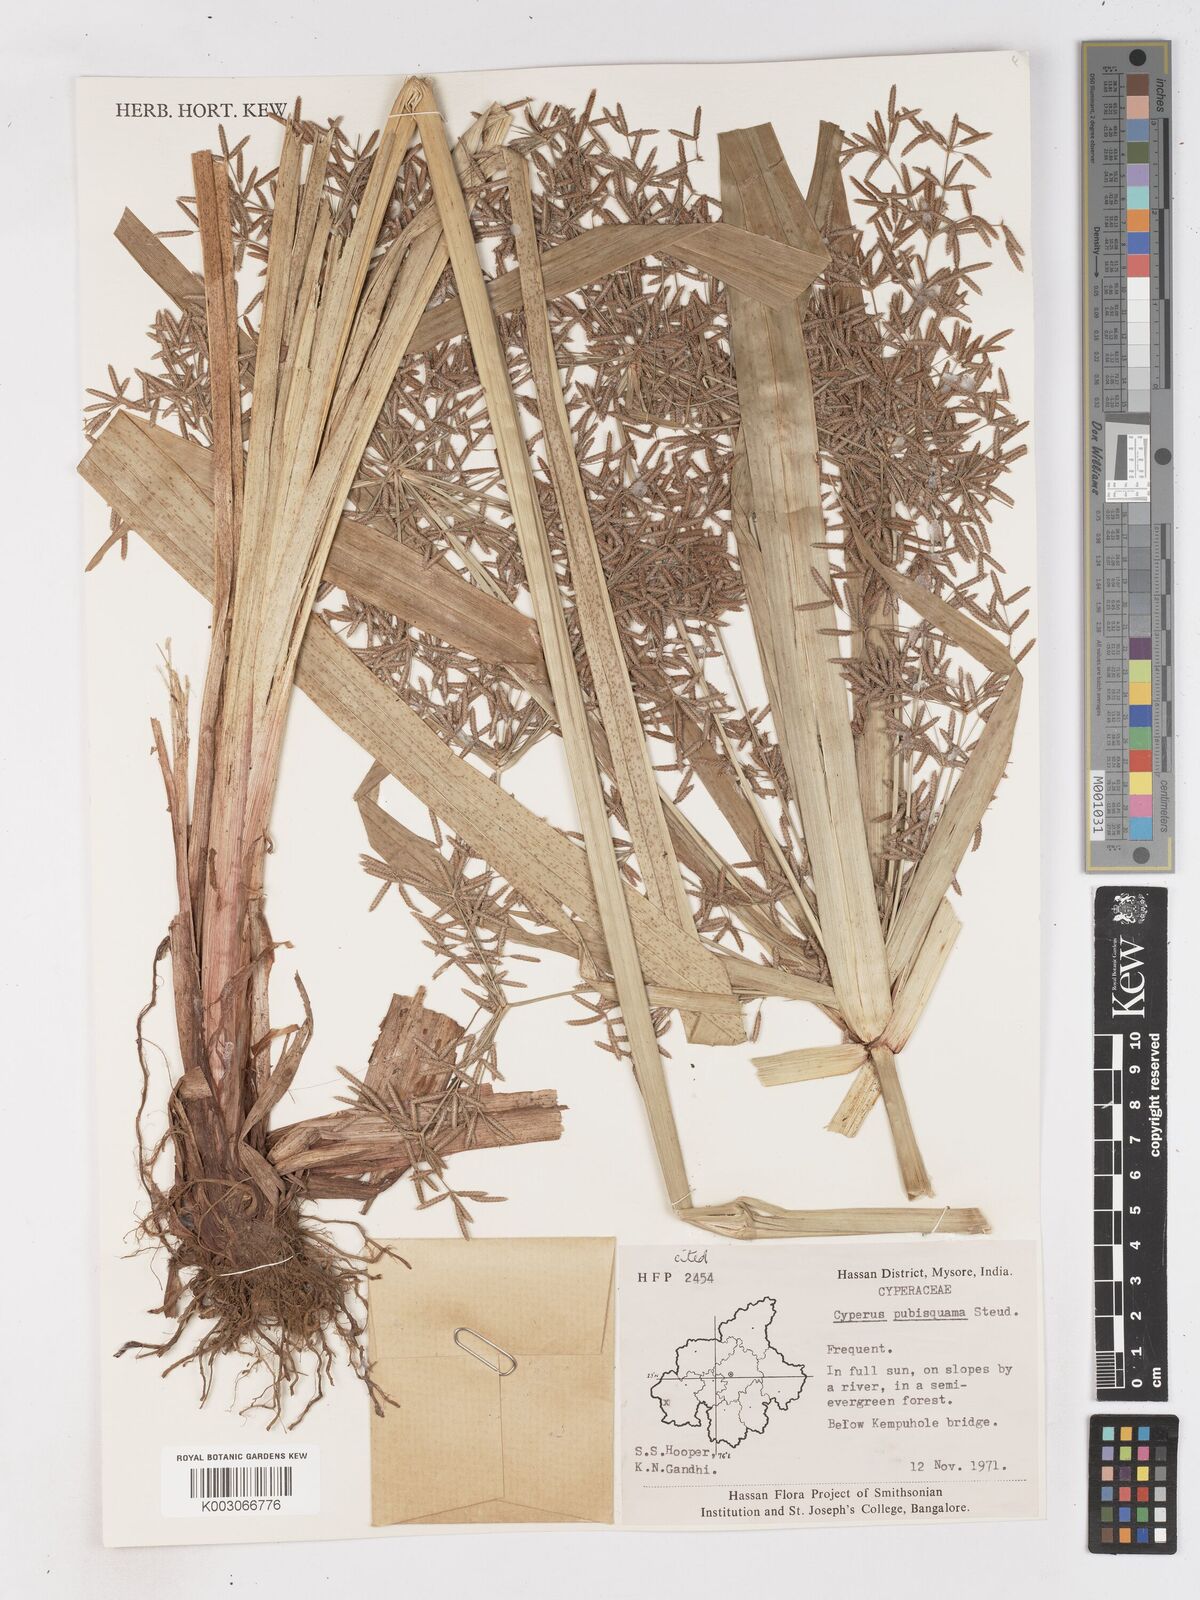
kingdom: Plantae
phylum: Tracheophyta
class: Liliopsida
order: Poales
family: Cyperaceae
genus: Cyperus
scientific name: Cyperus diffusus
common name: Dwarf umbrella grass
